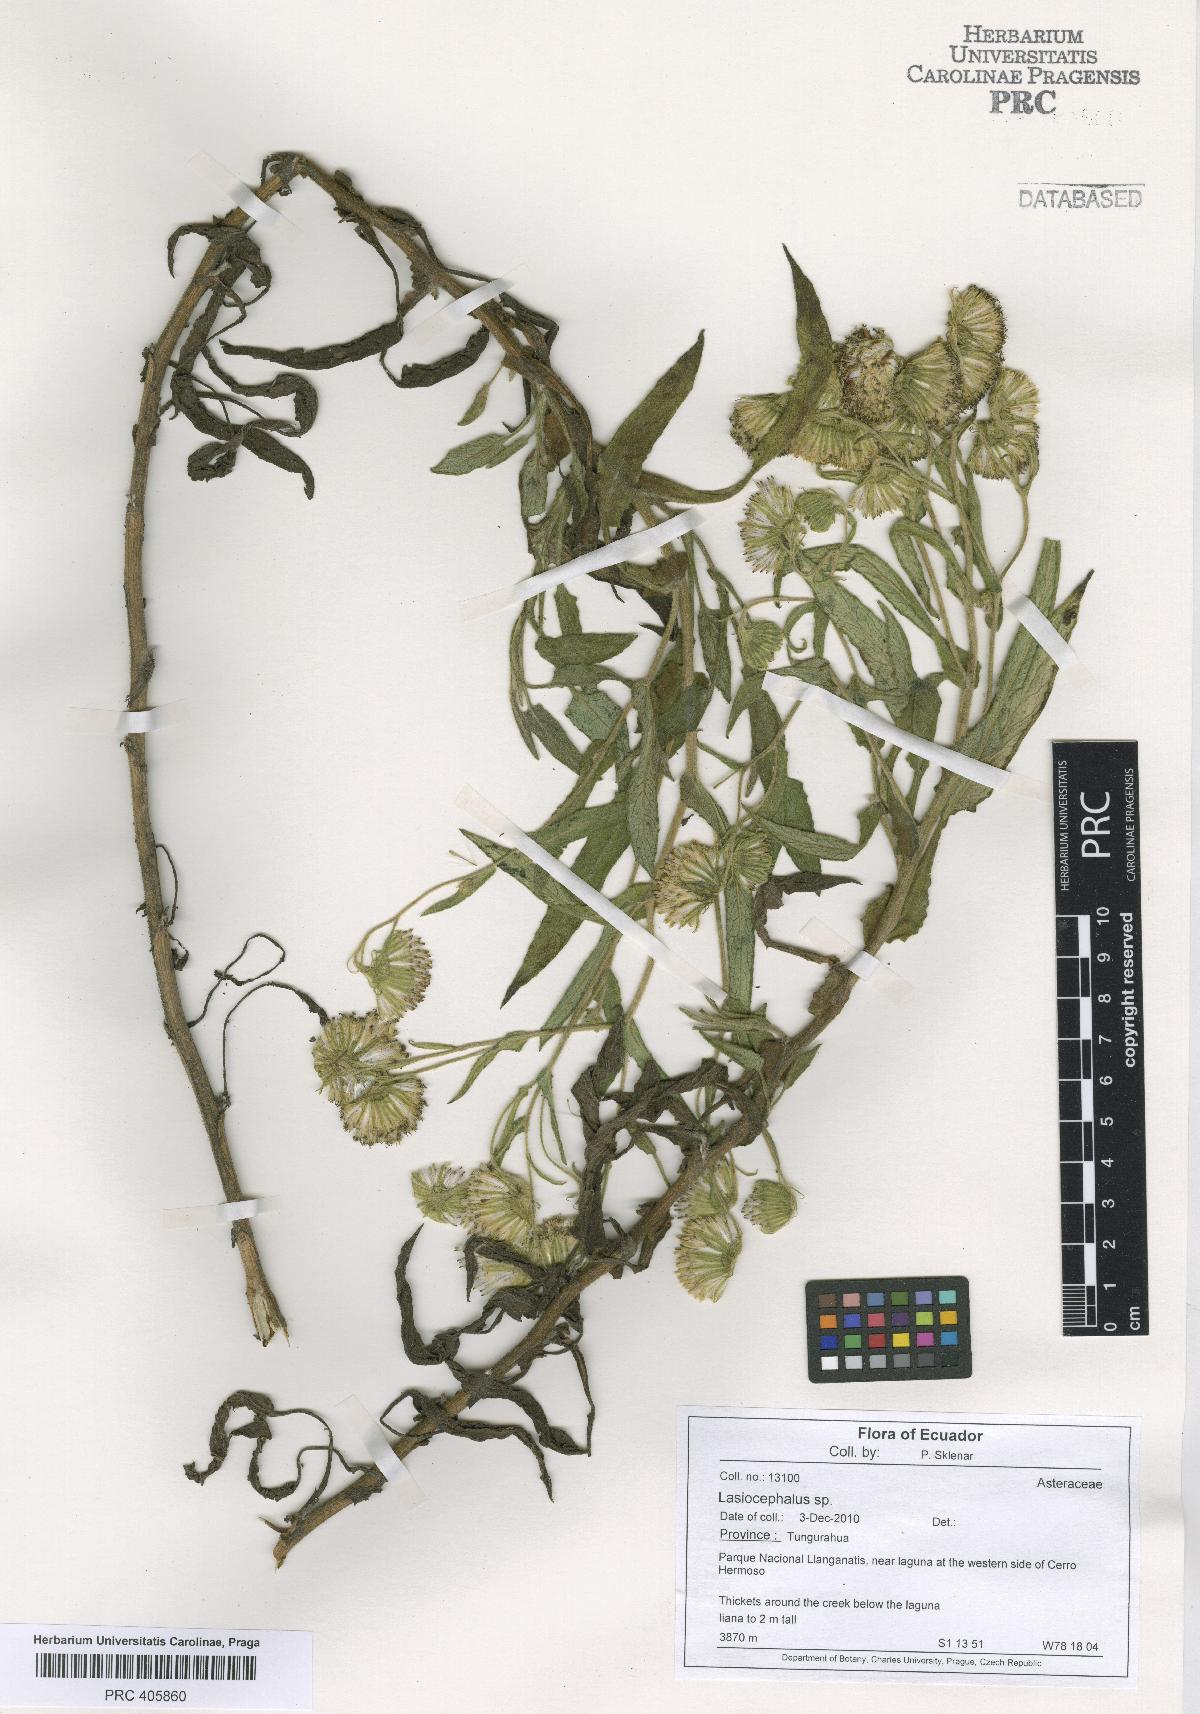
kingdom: Plantae
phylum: Tracheophyta
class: Magnoliopsida
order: Asterales
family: Asteraceae
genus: Lasiocephalus
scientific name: Lasiocephalus
